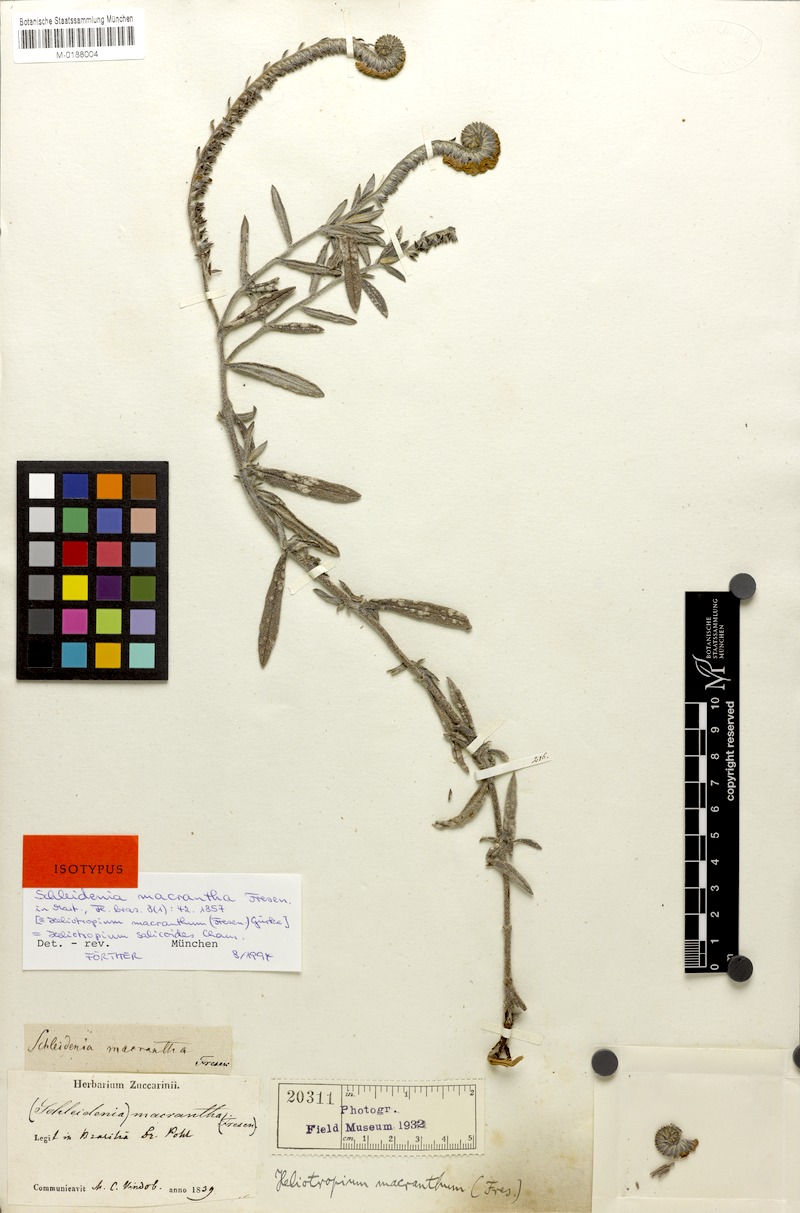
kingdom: Plantae
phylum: Tracheophyta
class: Magnoliopsida
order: Boraginales
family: Heliotropiaceae
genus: Euploca
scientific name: Euploca salicoides
